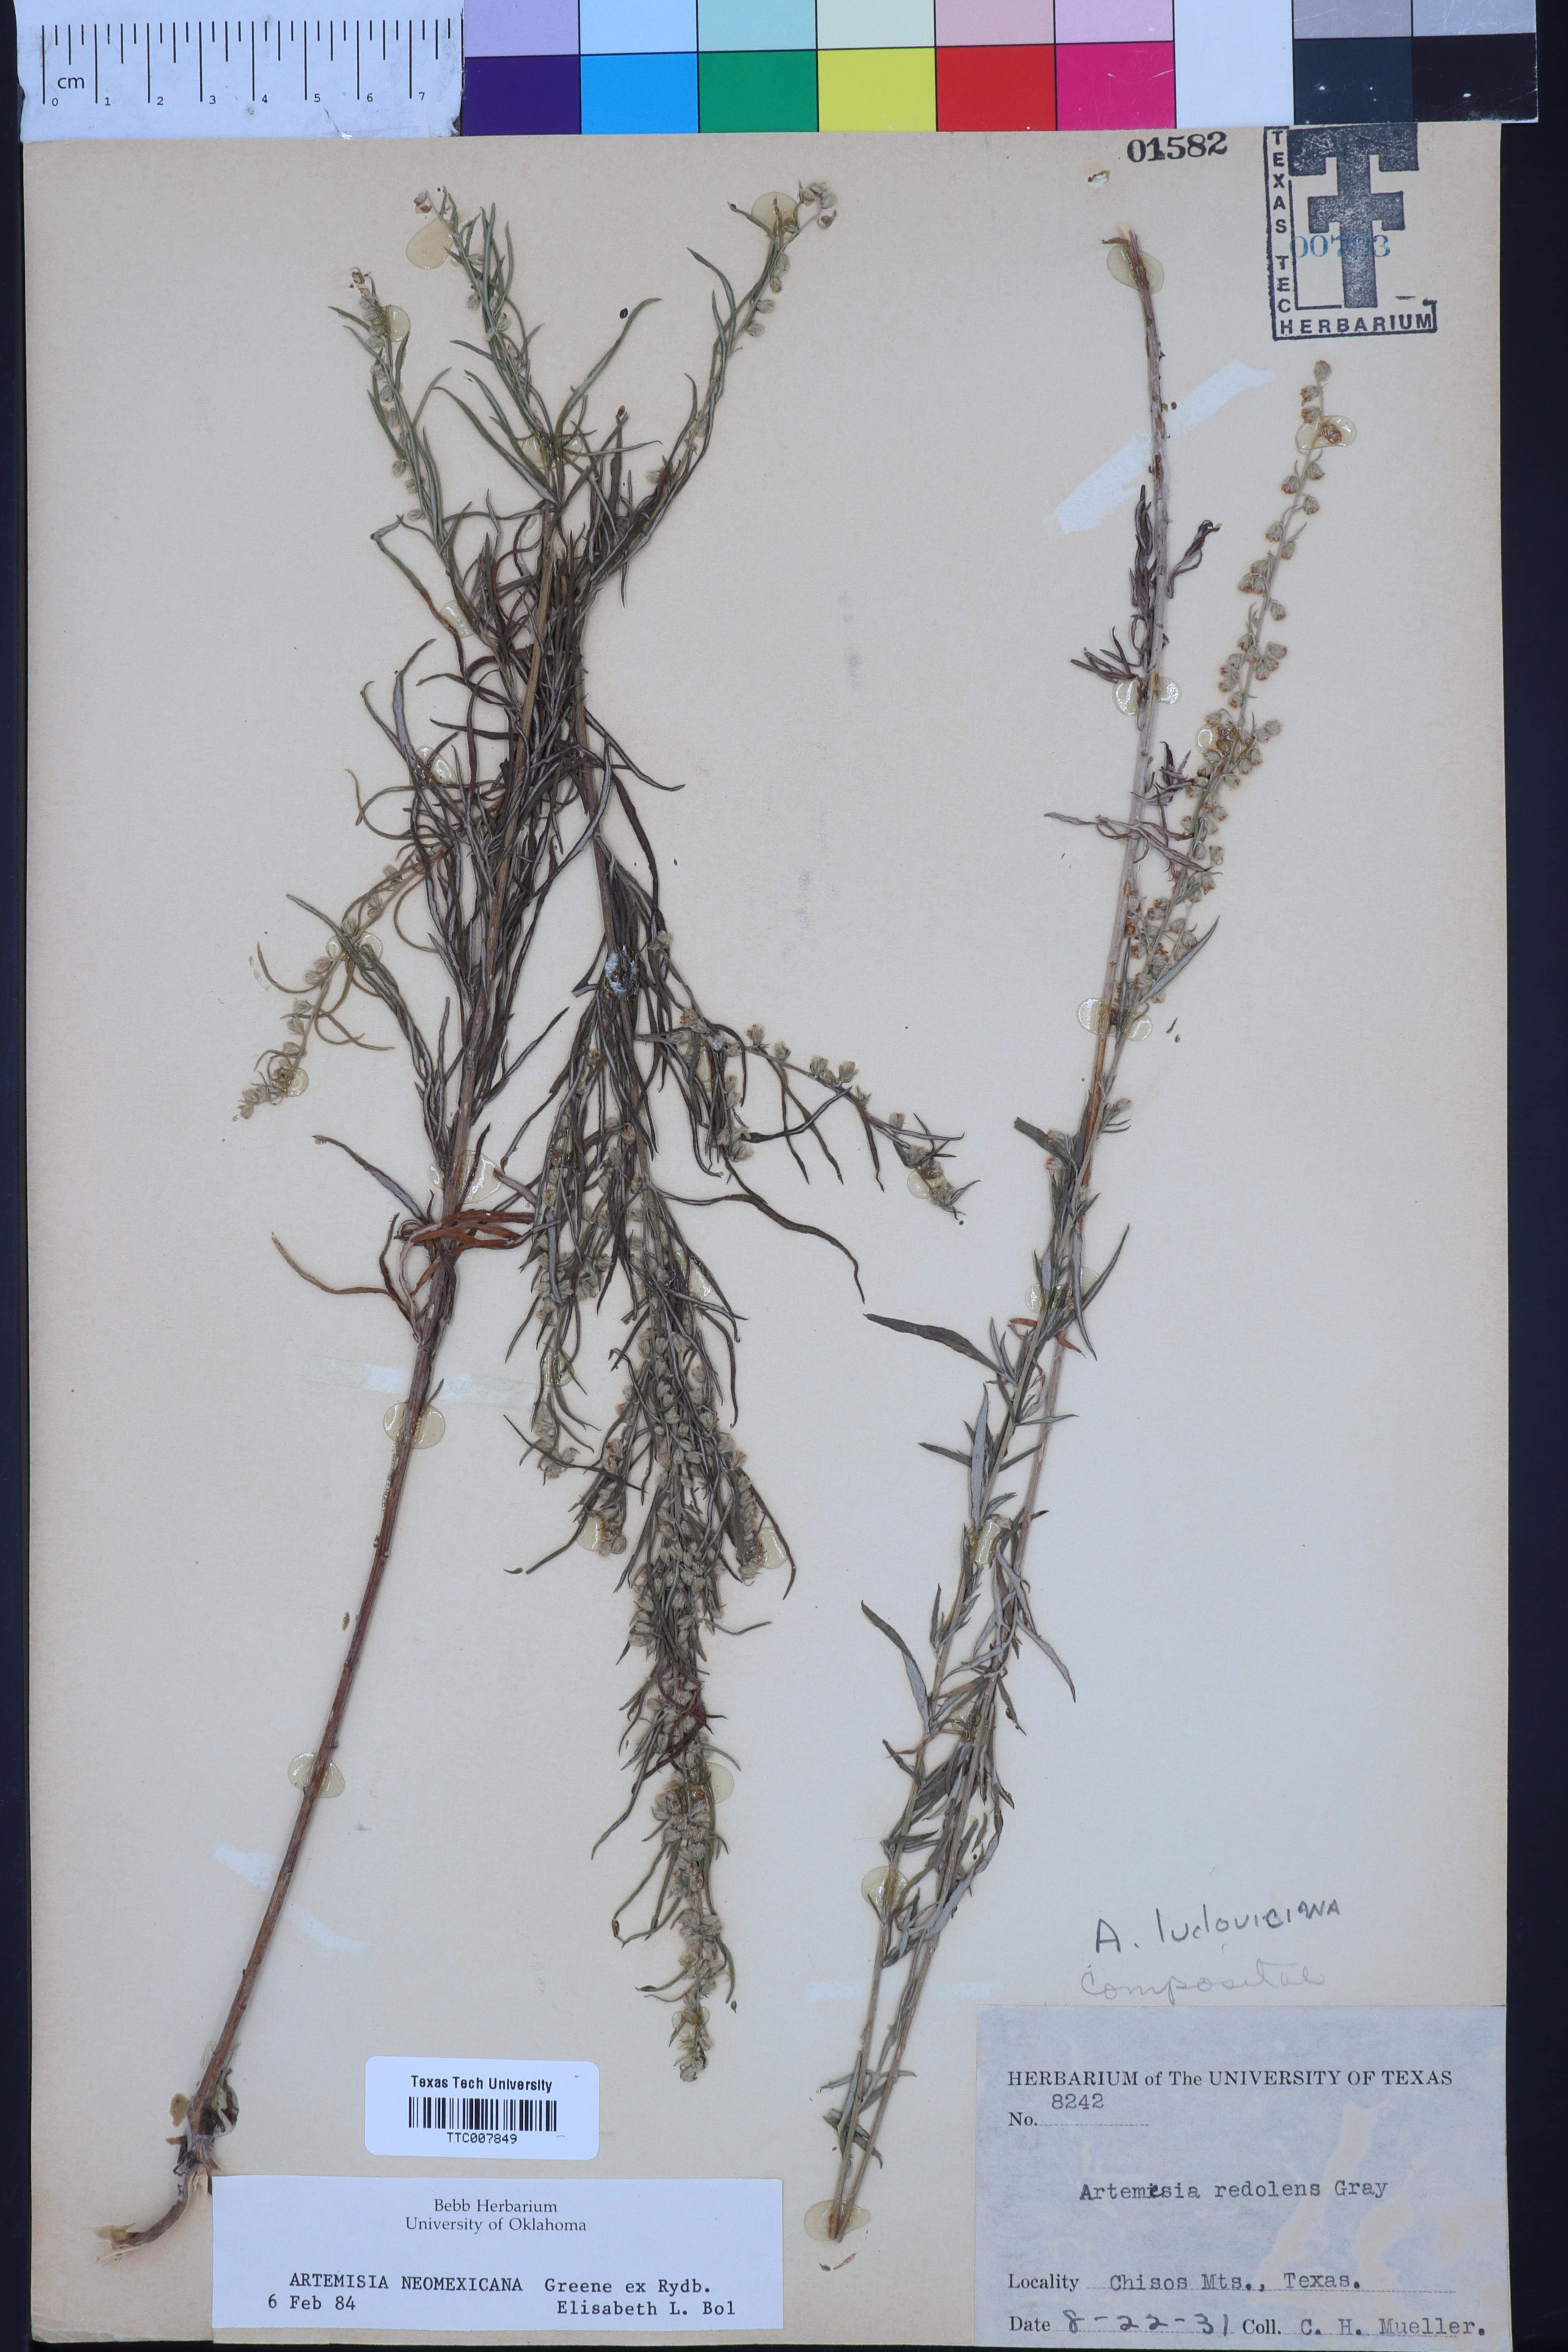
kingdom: Plantae
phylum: Tracheophyta
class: Magnoliopsida
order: Asterales
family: Asteraceae
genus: Artemisia
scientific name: Artemisia ludoviciana
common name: Western mugwort
